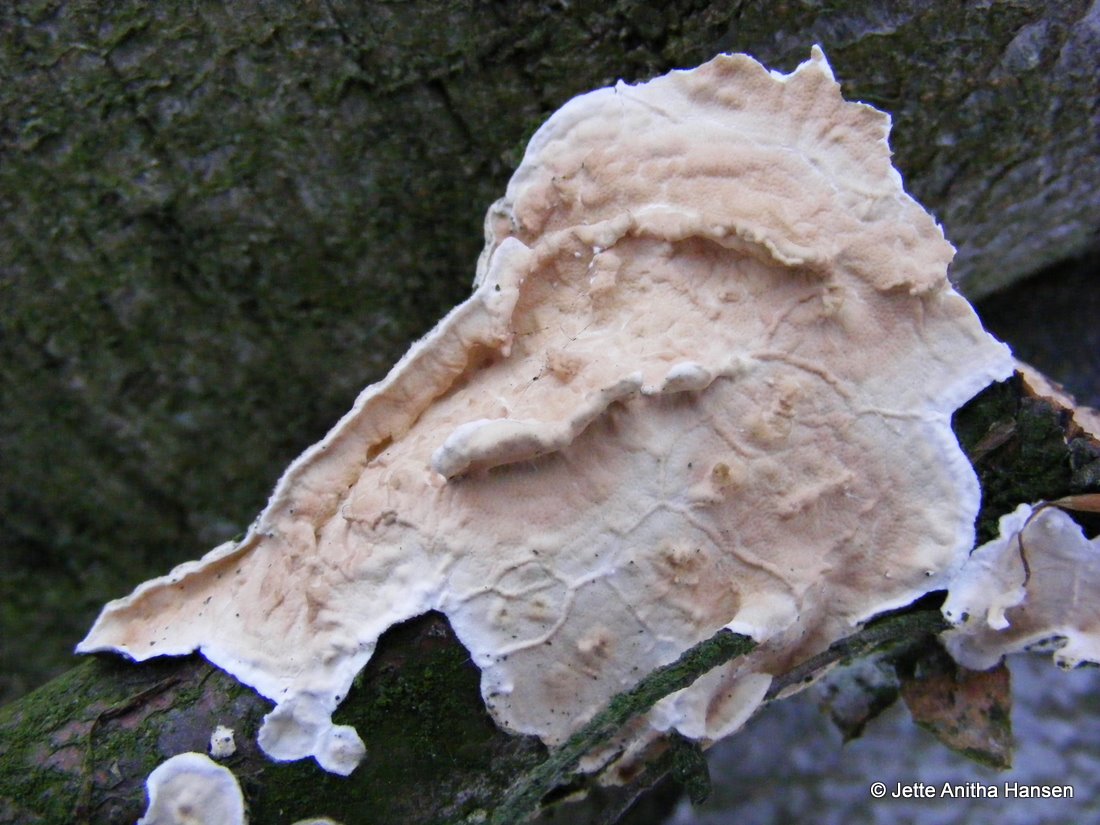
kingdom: Fungi
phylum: Basidiomycota
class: Agaricomycetes
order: Polyporales
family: Irpicaceae
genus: Byssomerulius
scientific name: Byssomerulius corium
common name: læder-åresvamp
